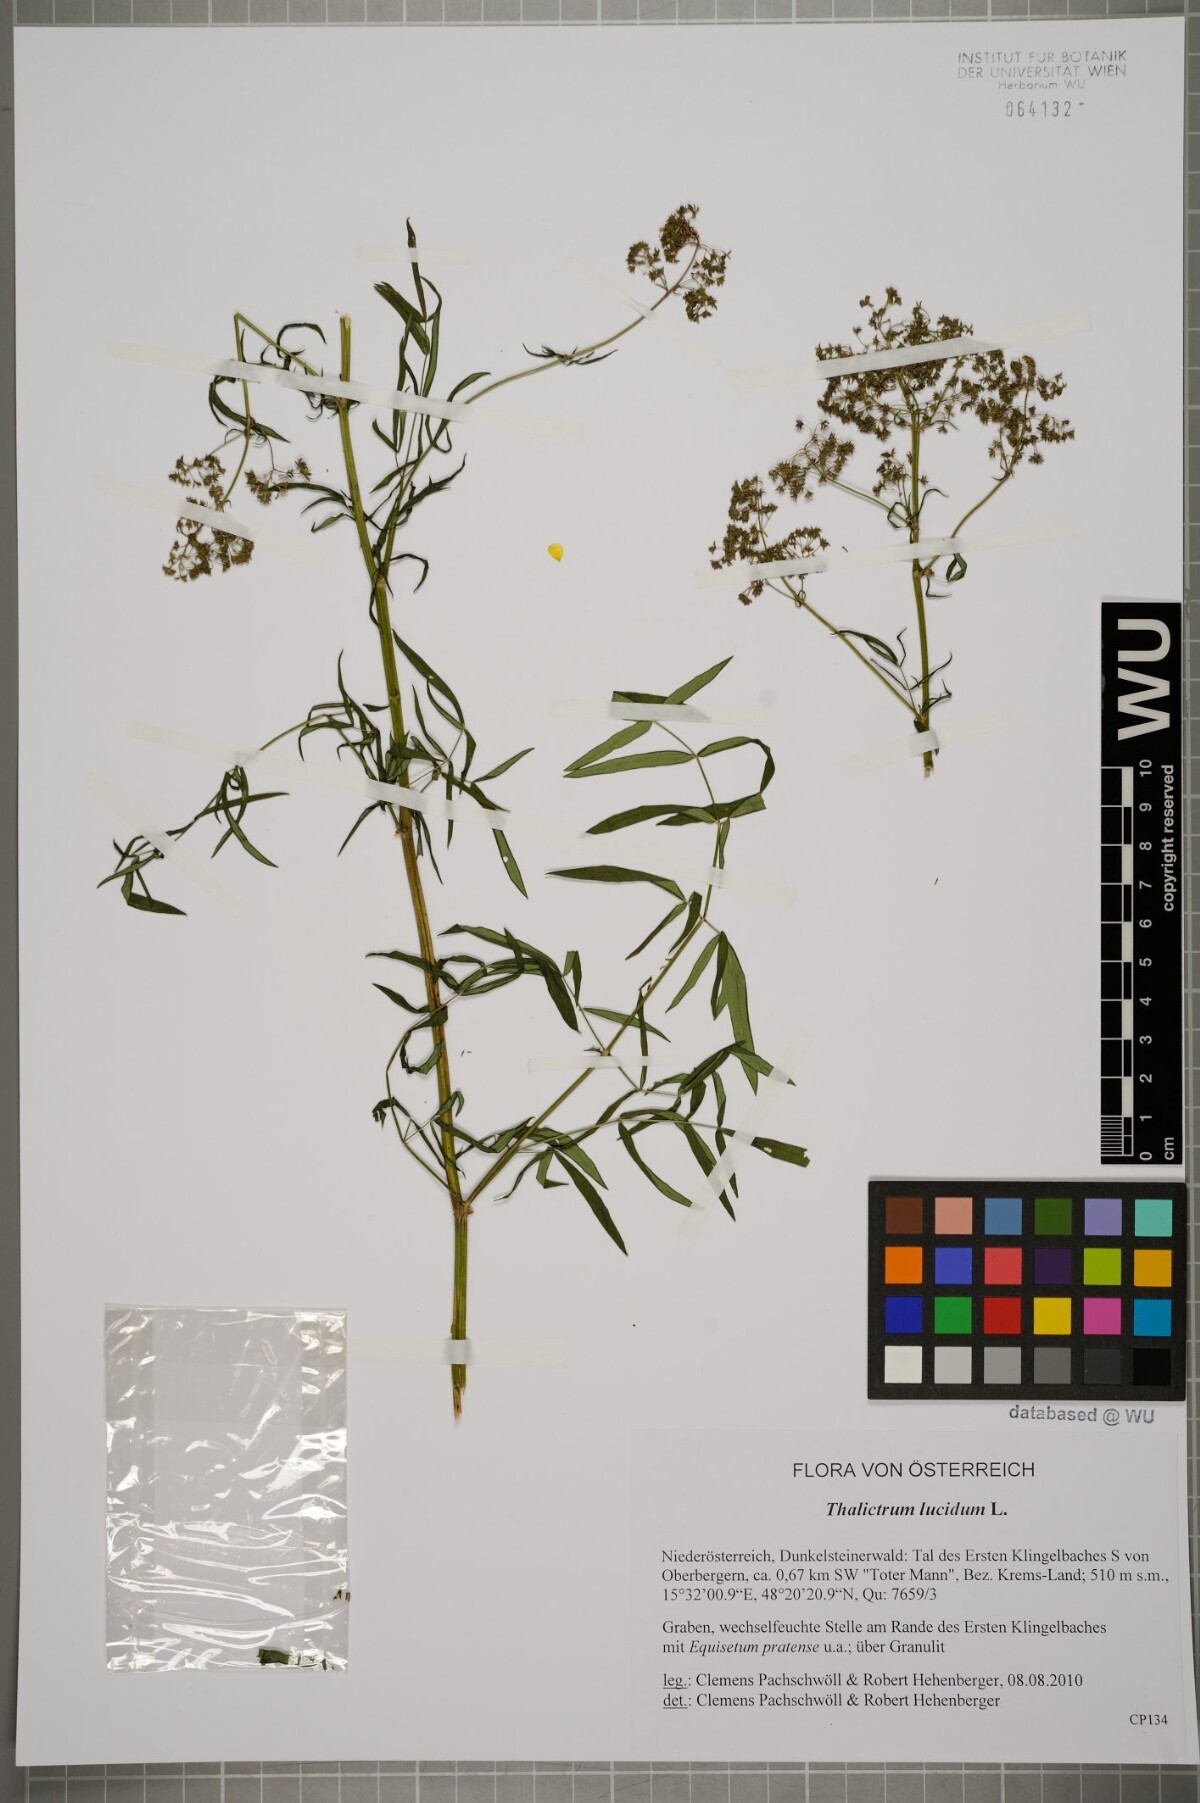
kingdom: Plantae
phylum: Tracheophyta
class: Magnoliopsida
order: Ranunculales
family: Ranunculaceae
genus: Thalictrum
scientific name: Thalictrum lucidum
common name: Shining meadow-rue
